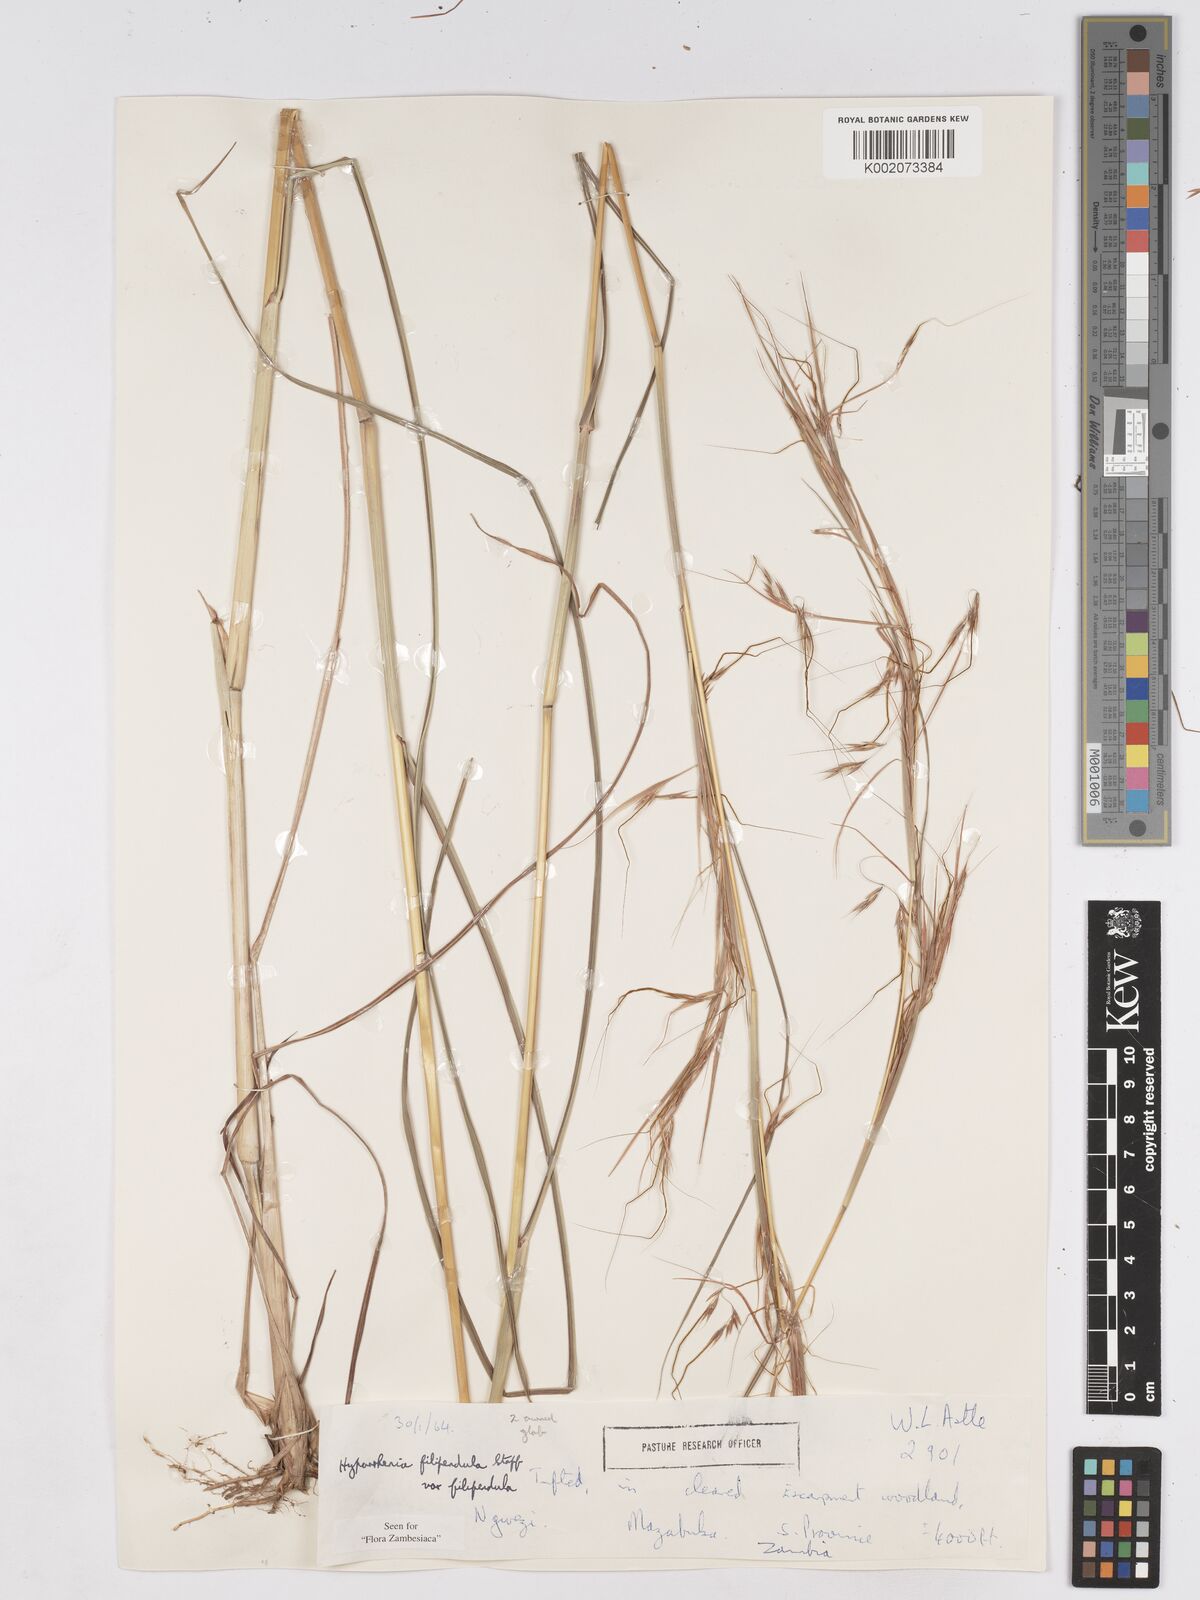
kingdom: Plantae
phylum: Tracheophyta
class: Liliopsida
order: Poales
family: Poaceae
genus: Hyparrhenia
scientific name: Hyparrhenia filipendula
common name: Tambookie grass
